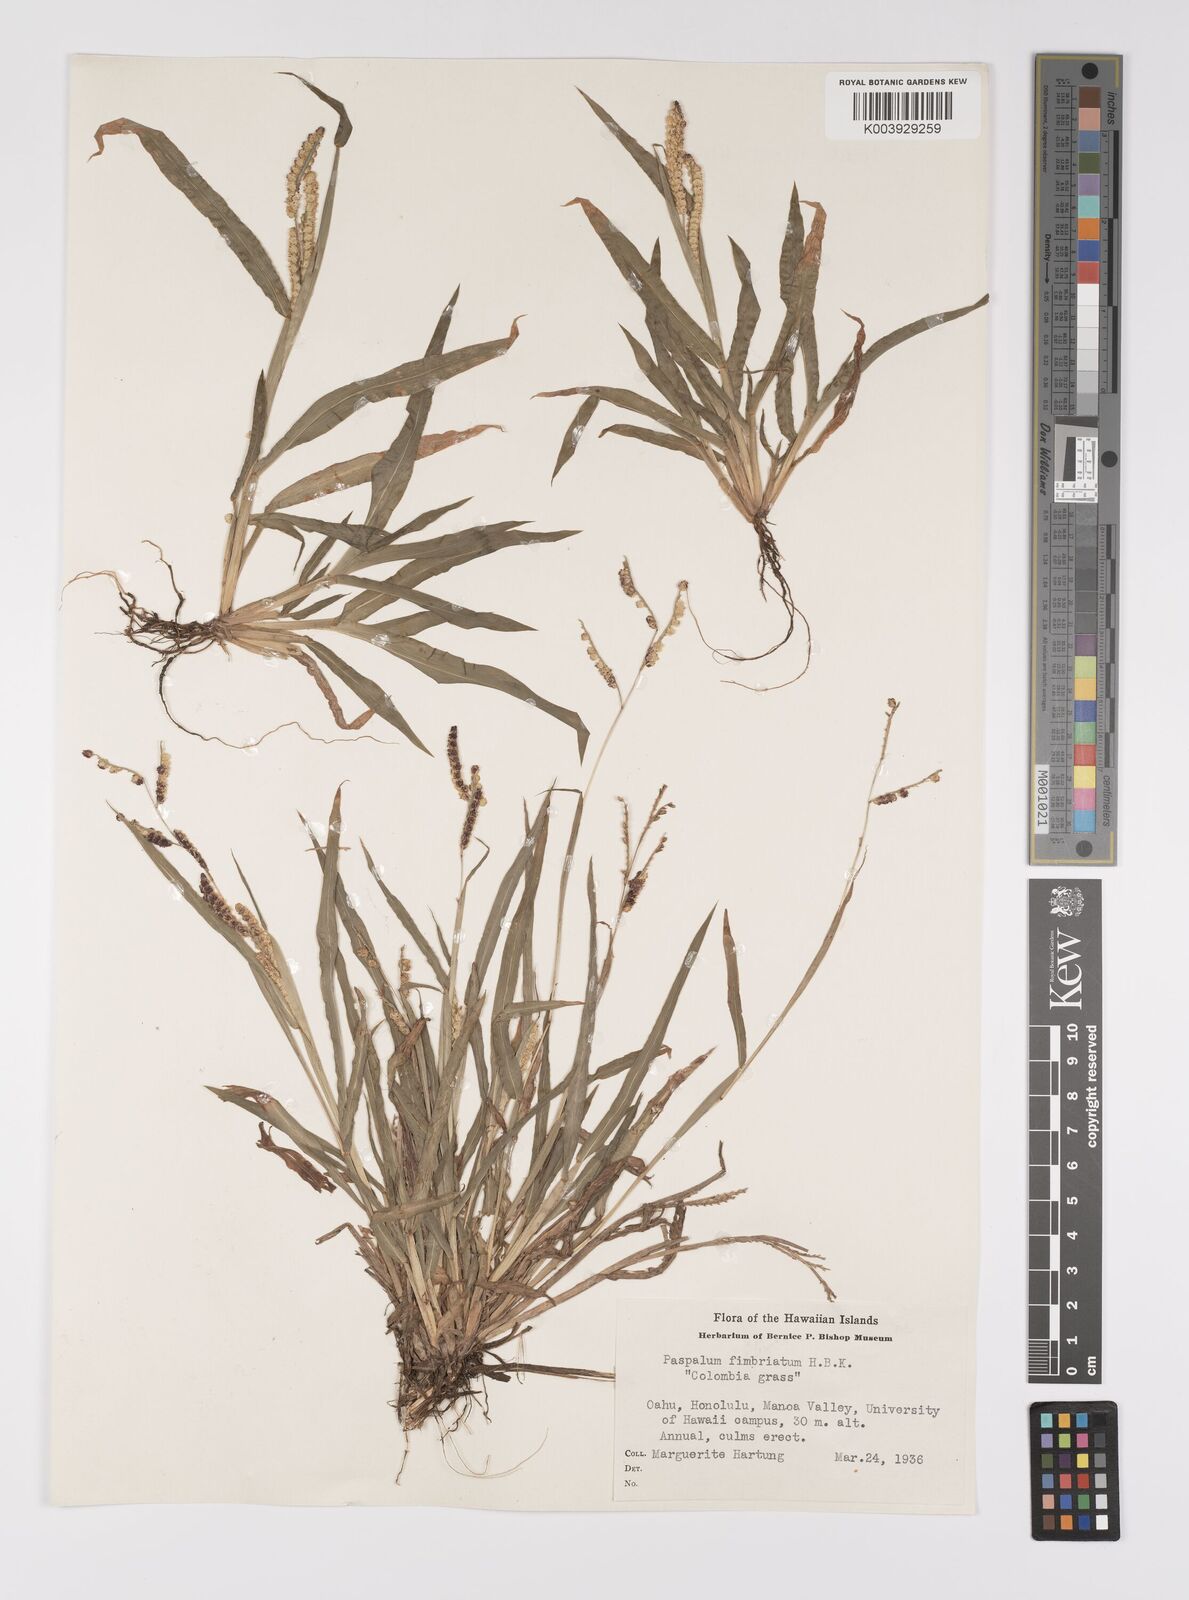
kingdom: Plantae
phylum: Tracheophyta
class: Liliopsida
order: Poales
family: Poaceae
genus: Paspalum
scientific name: Paspalum fimbriatum
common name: Panama crowngrass
